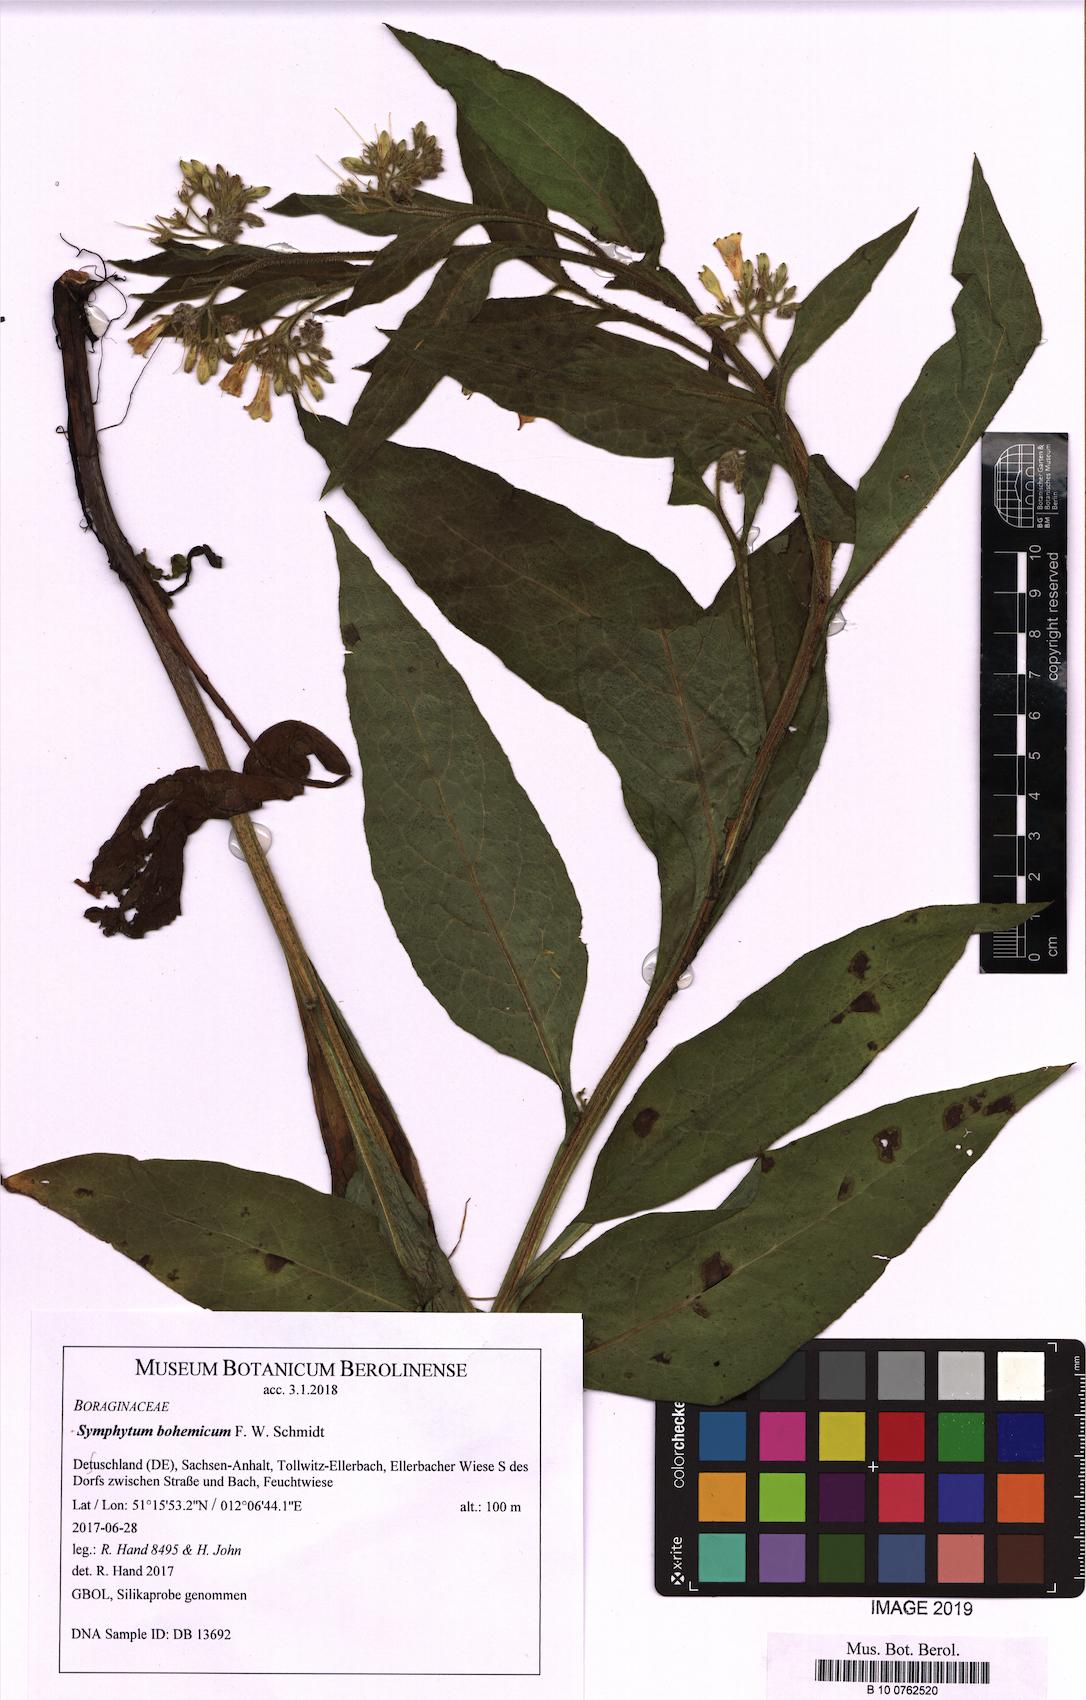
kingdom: Plantae
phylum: Tracheophyta
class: Magnoliopsida
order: Boraginales
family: Boraginaceae
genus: Symphytum
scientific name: Symphytum bohemicum
